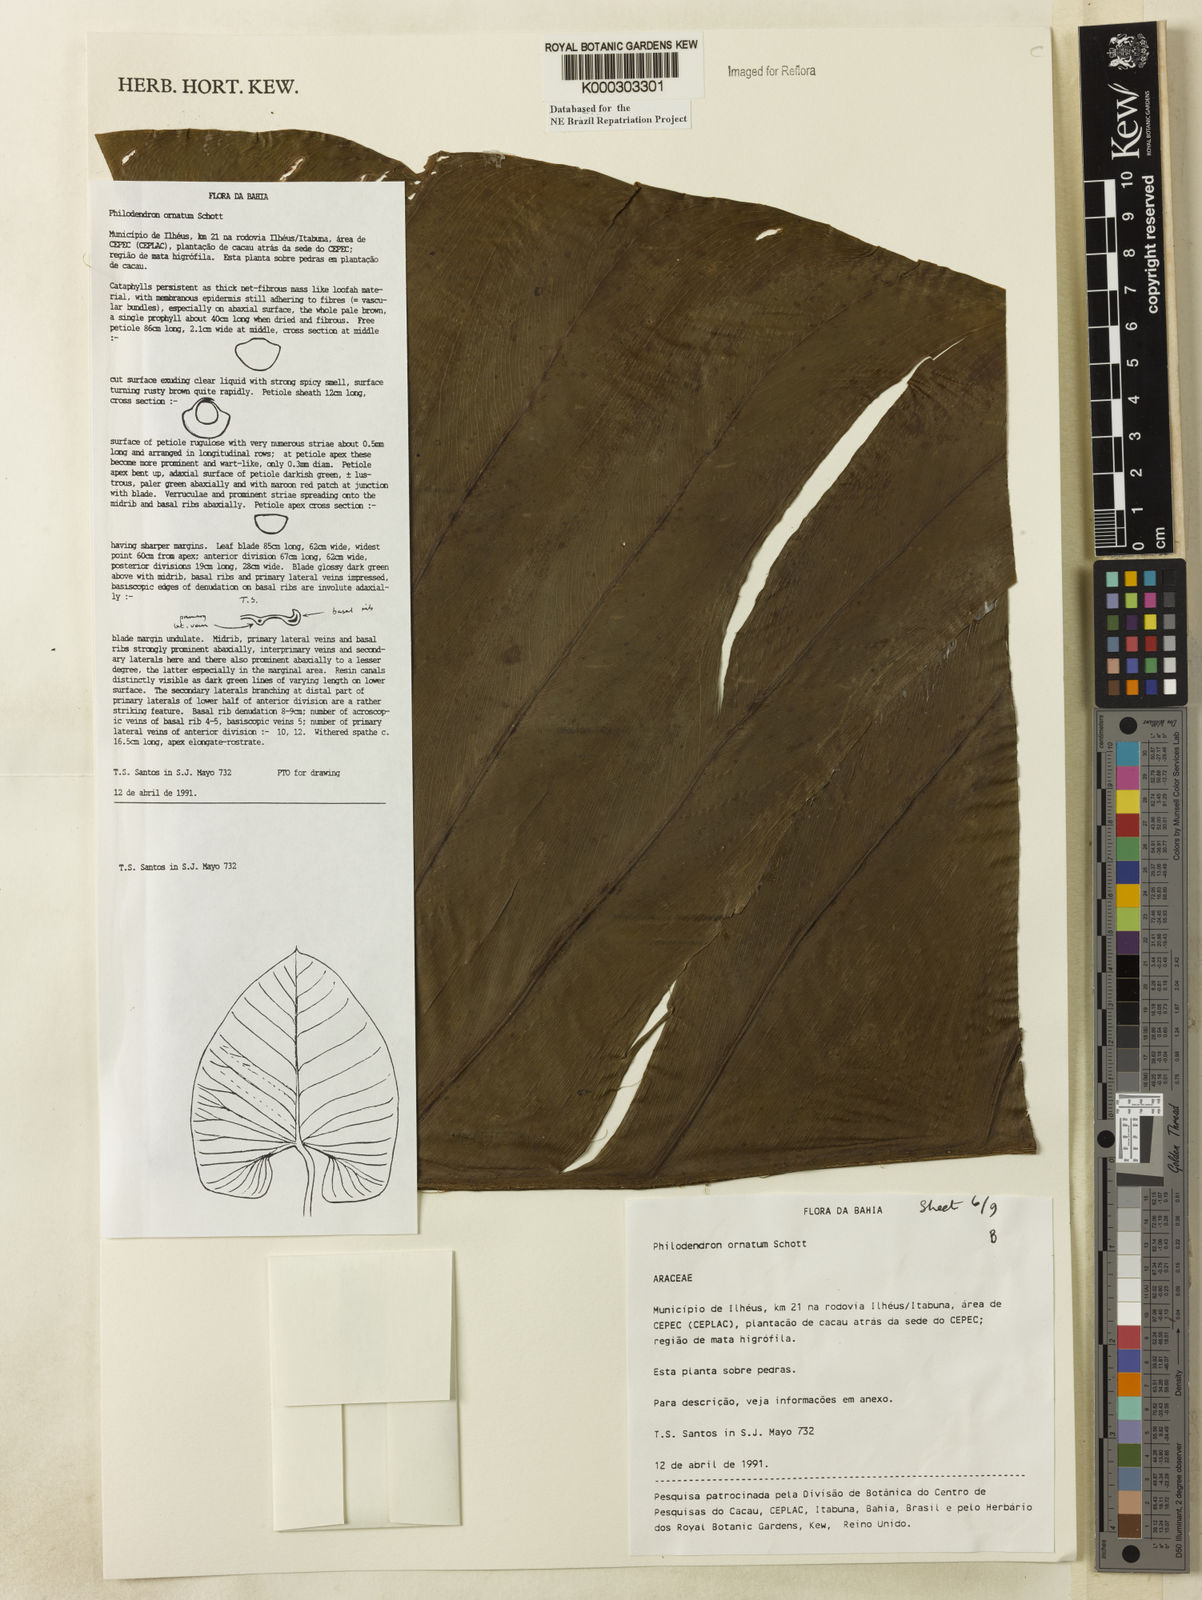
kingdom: Plantae
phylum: Tracheophyta
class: Liliopsida
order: Alismatales
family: Araceae
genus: Philodendron
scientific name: Philodendron ornatum
